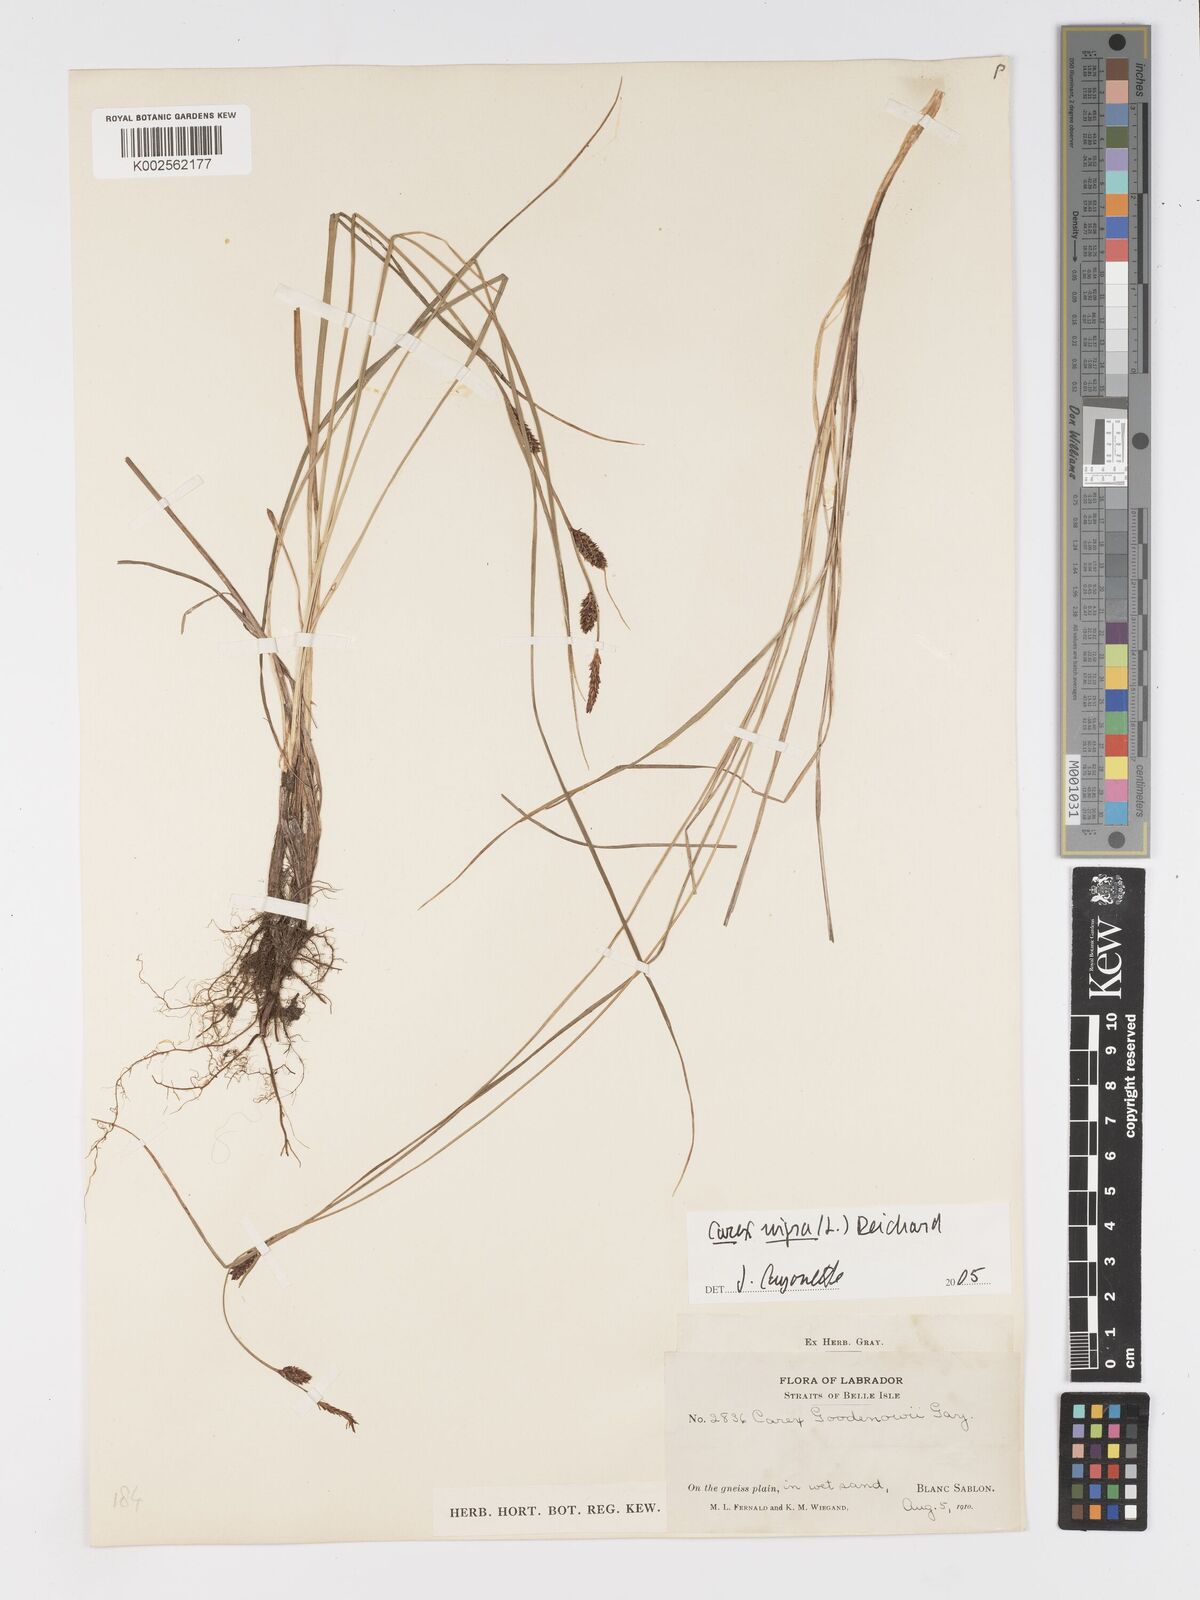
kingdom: Plantae
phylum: Tracheophyta
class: Liliopsida
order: Poales
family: Cyperaceae
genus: Carex
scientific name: Carex nigra
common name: Common sedge
